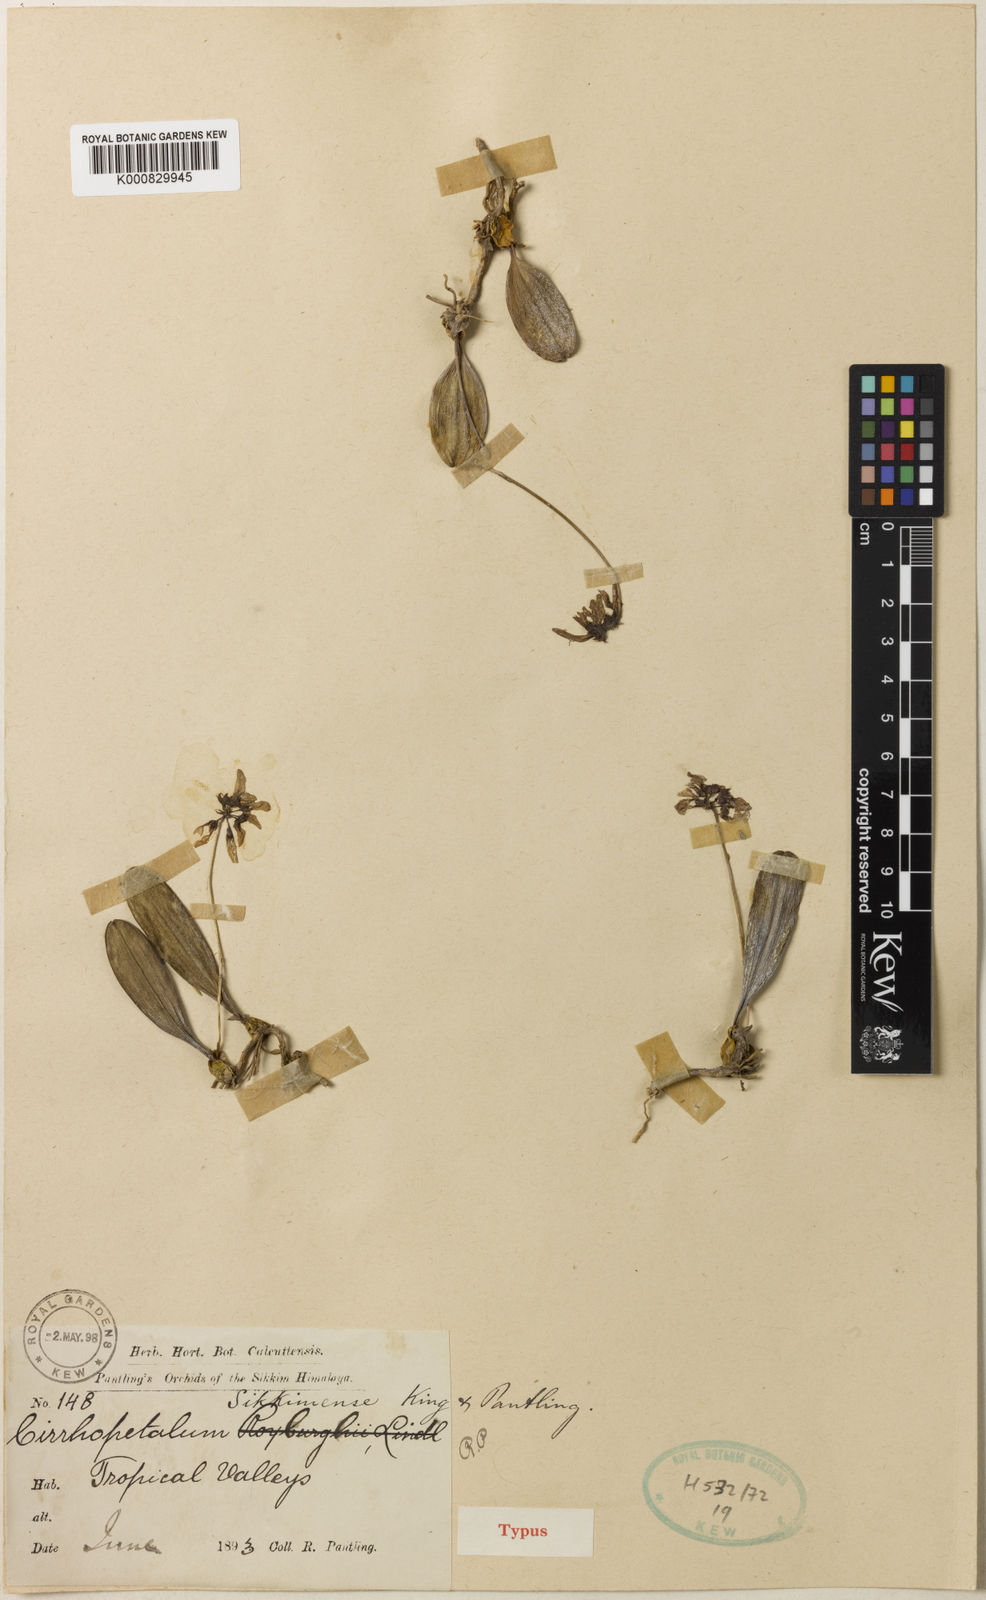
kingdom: Plantae
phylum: Tracheophyta
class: Liliopsida
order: Asparagales
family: Orchidaceae
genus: Bulbophyllum
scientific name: Bulbophyllum roxburghii
